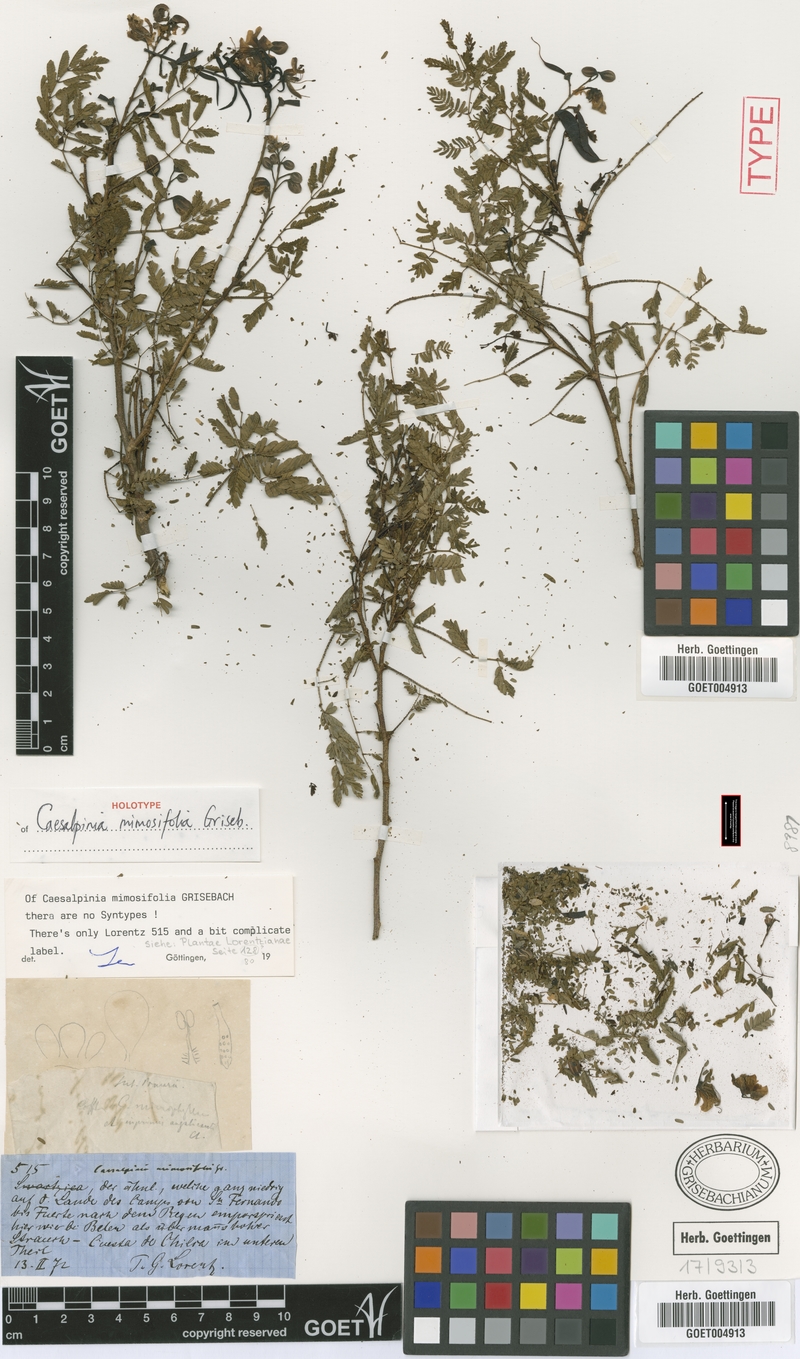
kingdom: Plantae
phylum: Tracheophyta
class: Magnoliopsida
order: Fabales
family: Fabaceae
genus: Arquita
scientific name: Arquita mimosifolia
